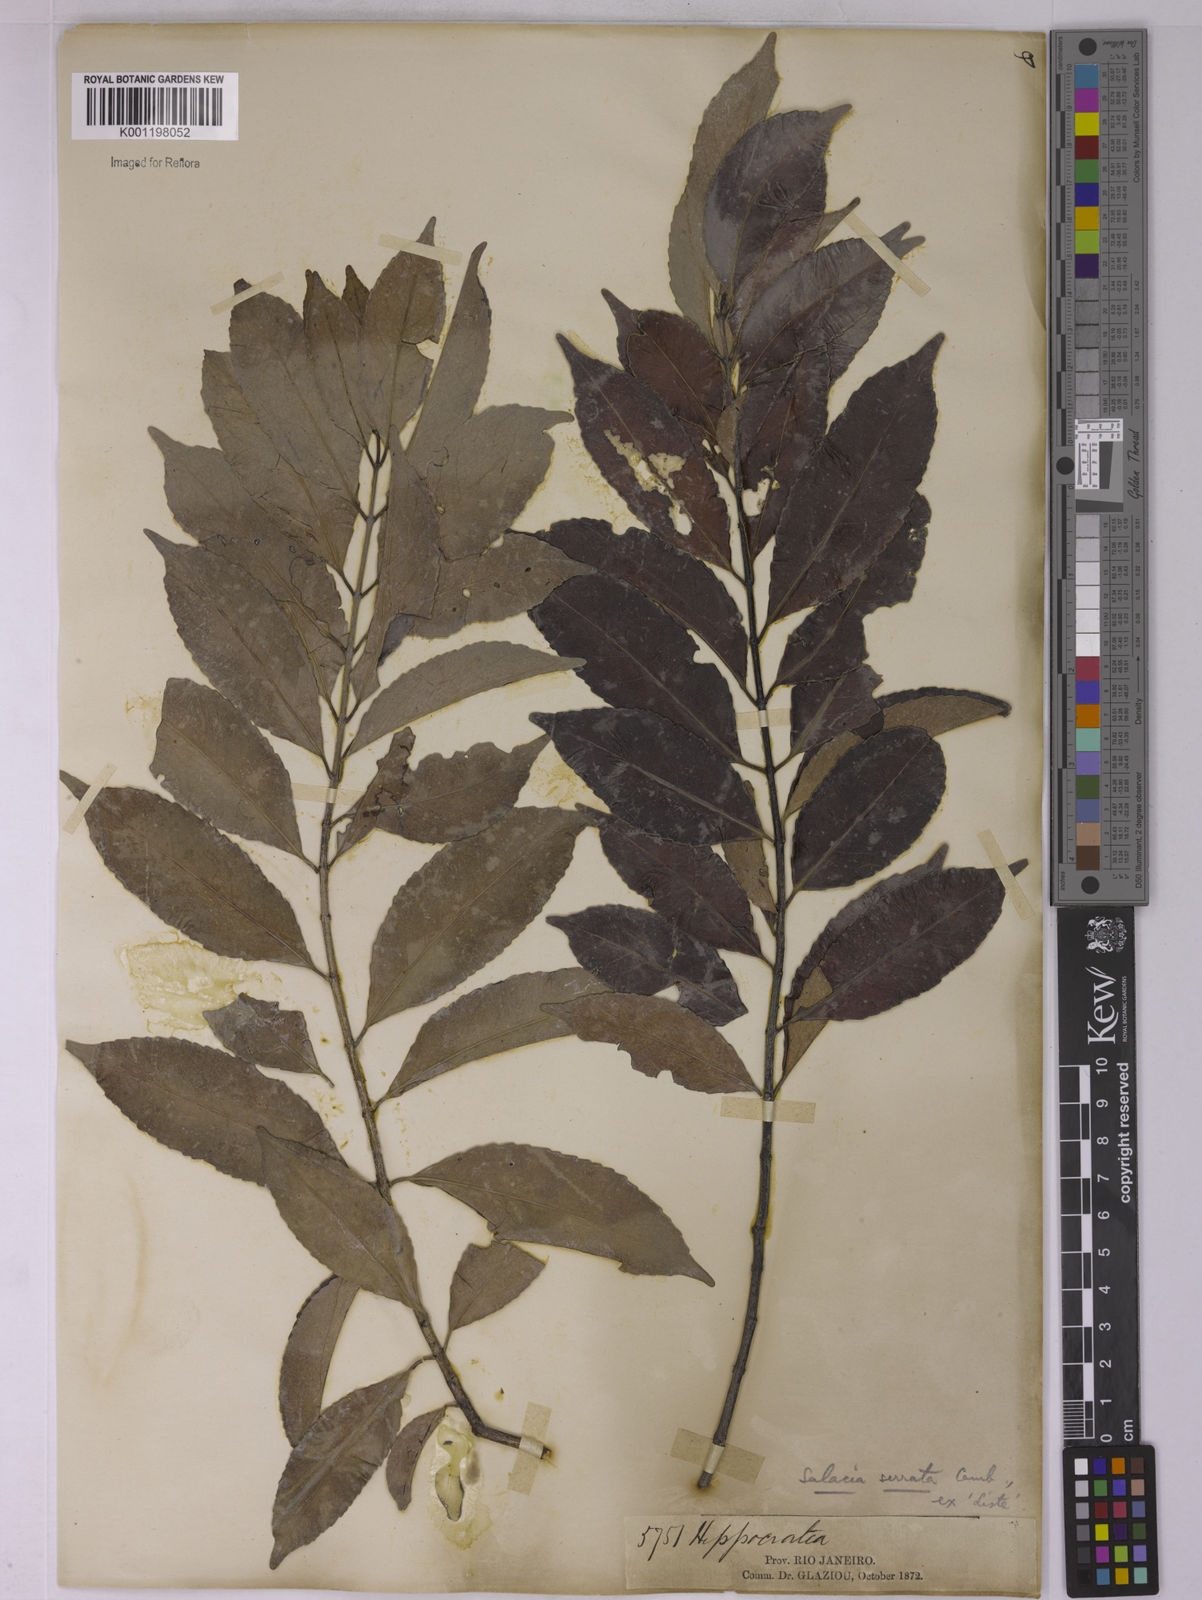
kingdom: Plantae
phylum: Tracheophyta
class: Magnoliopsida
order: Celastrales
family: Celastraceae
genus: Cheiloclinium
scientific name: Cheiloclinium serratum
